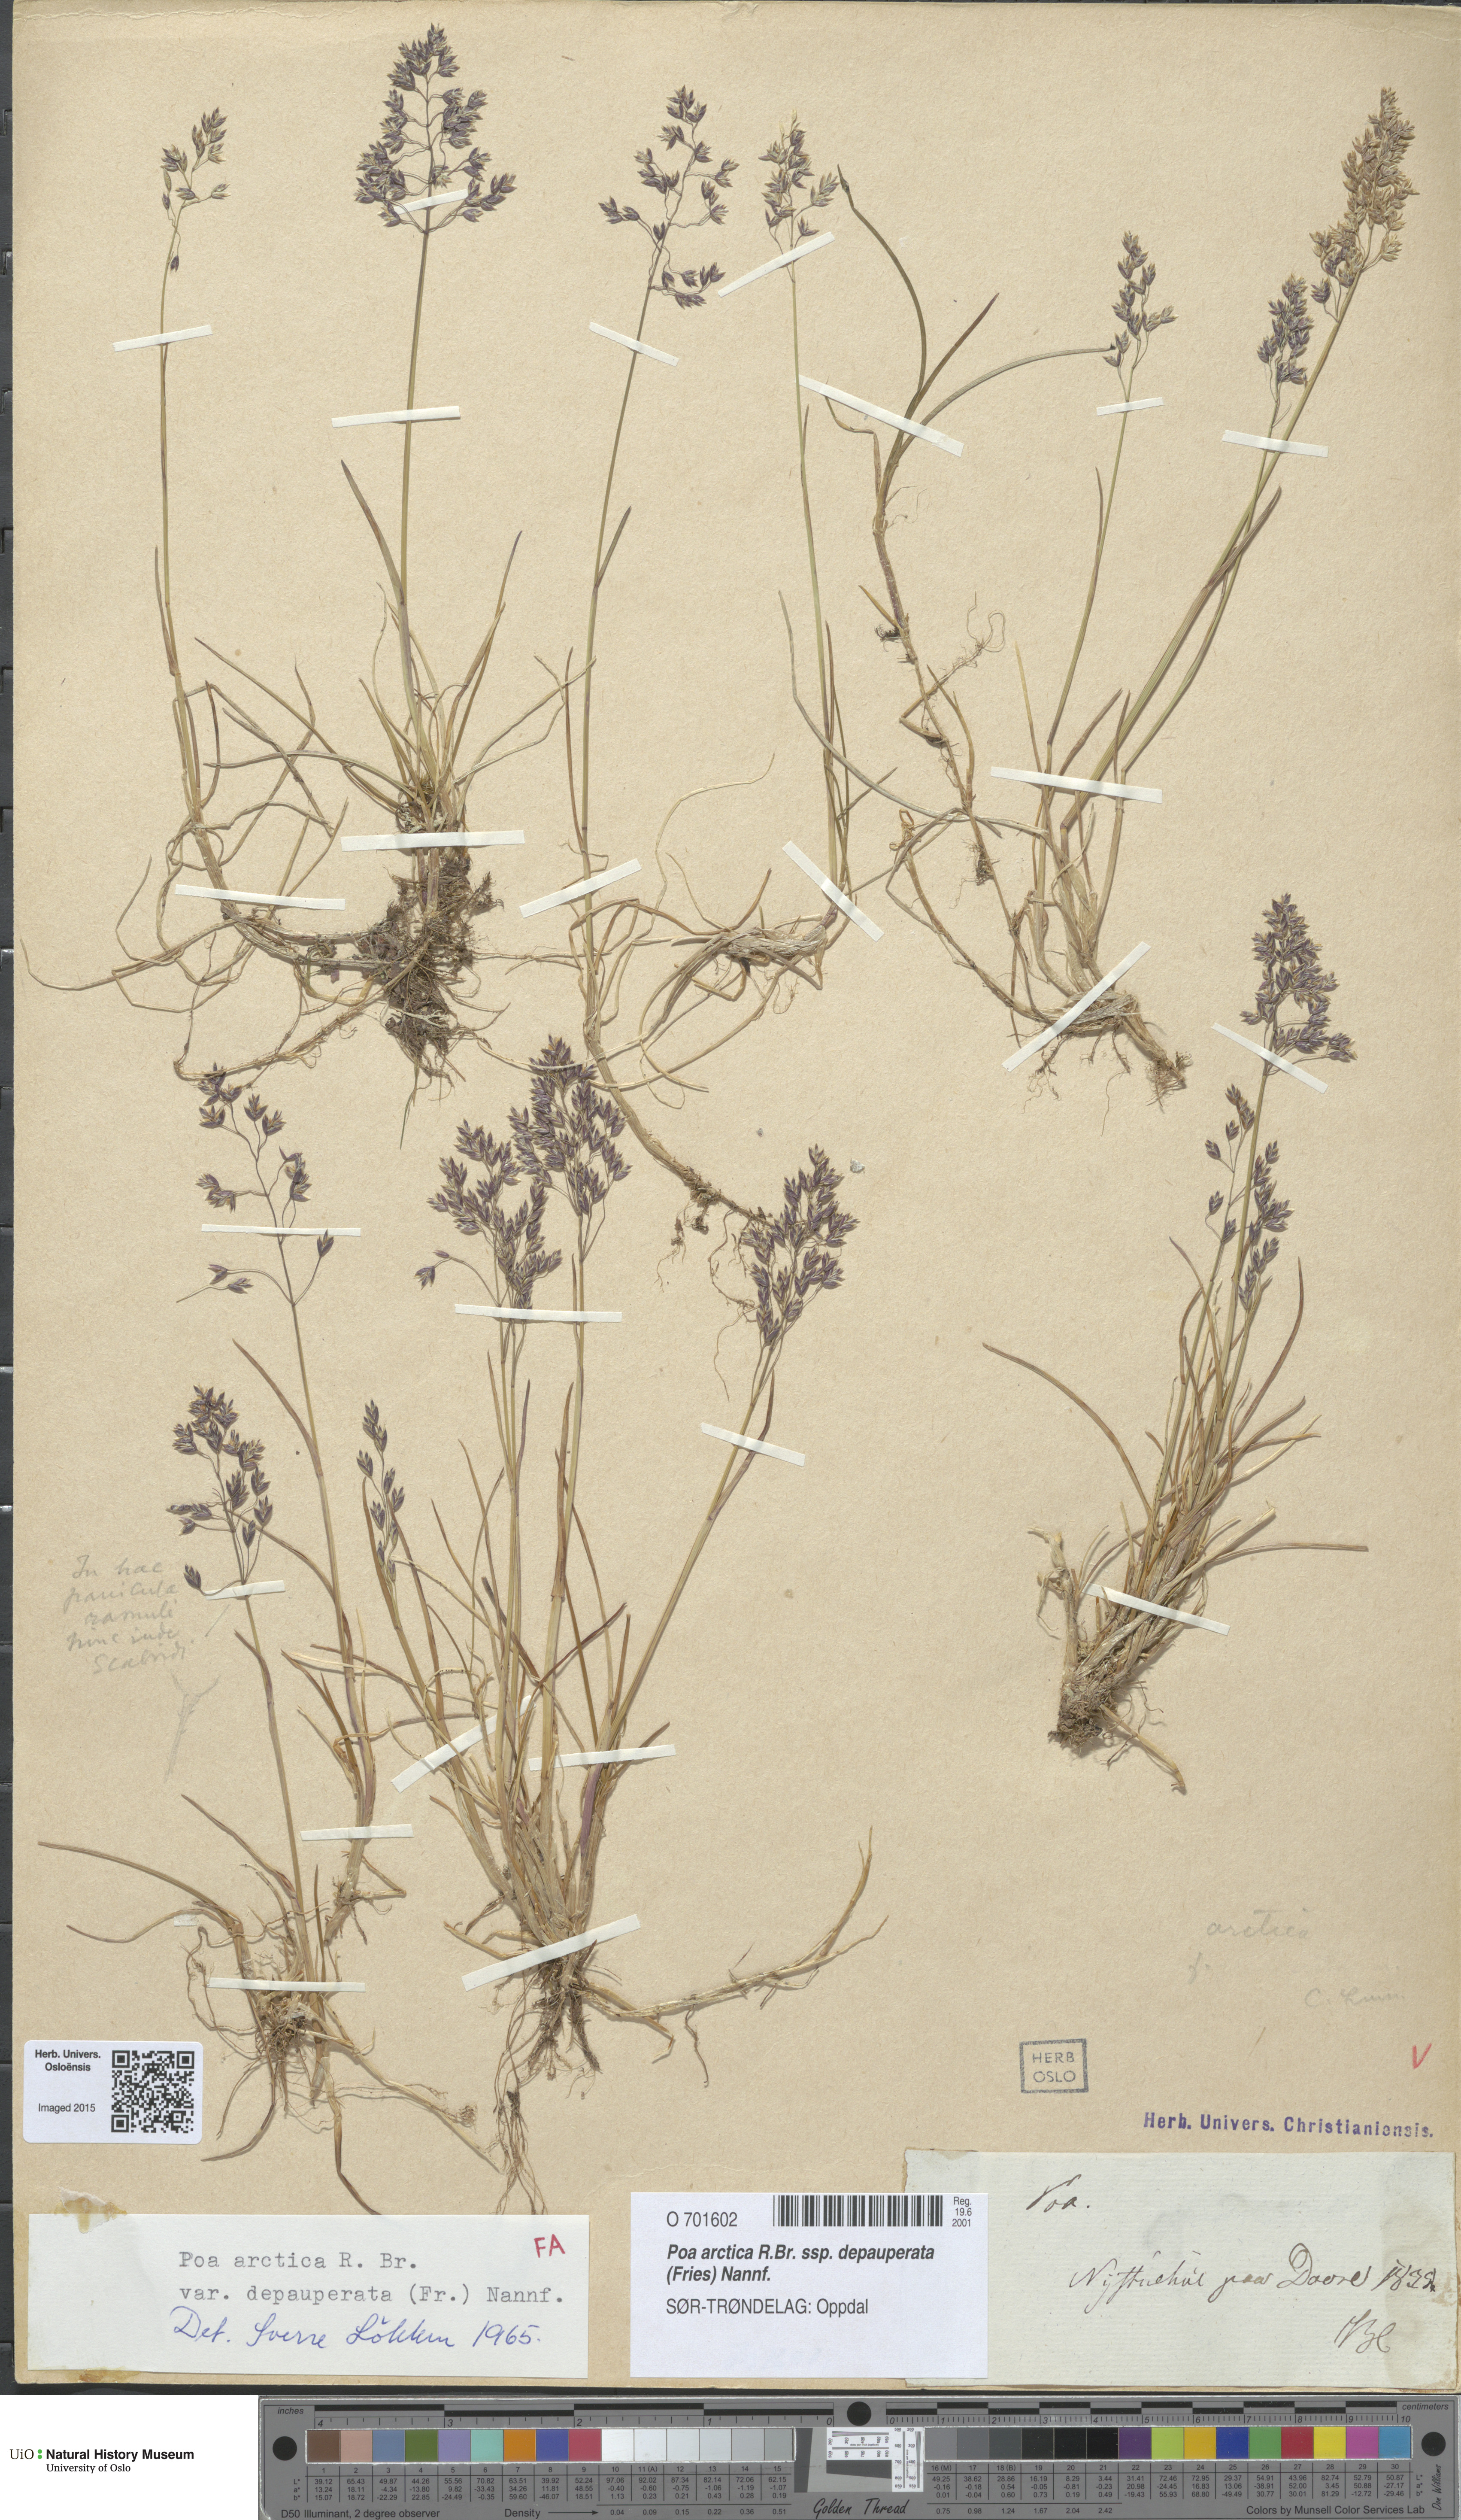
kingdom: Plantae
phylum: Tracheophyta
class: Liliopsida
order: Poales
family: Poaceae
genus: Poa
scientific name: Poa arctica
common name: Arctic bluegrass
